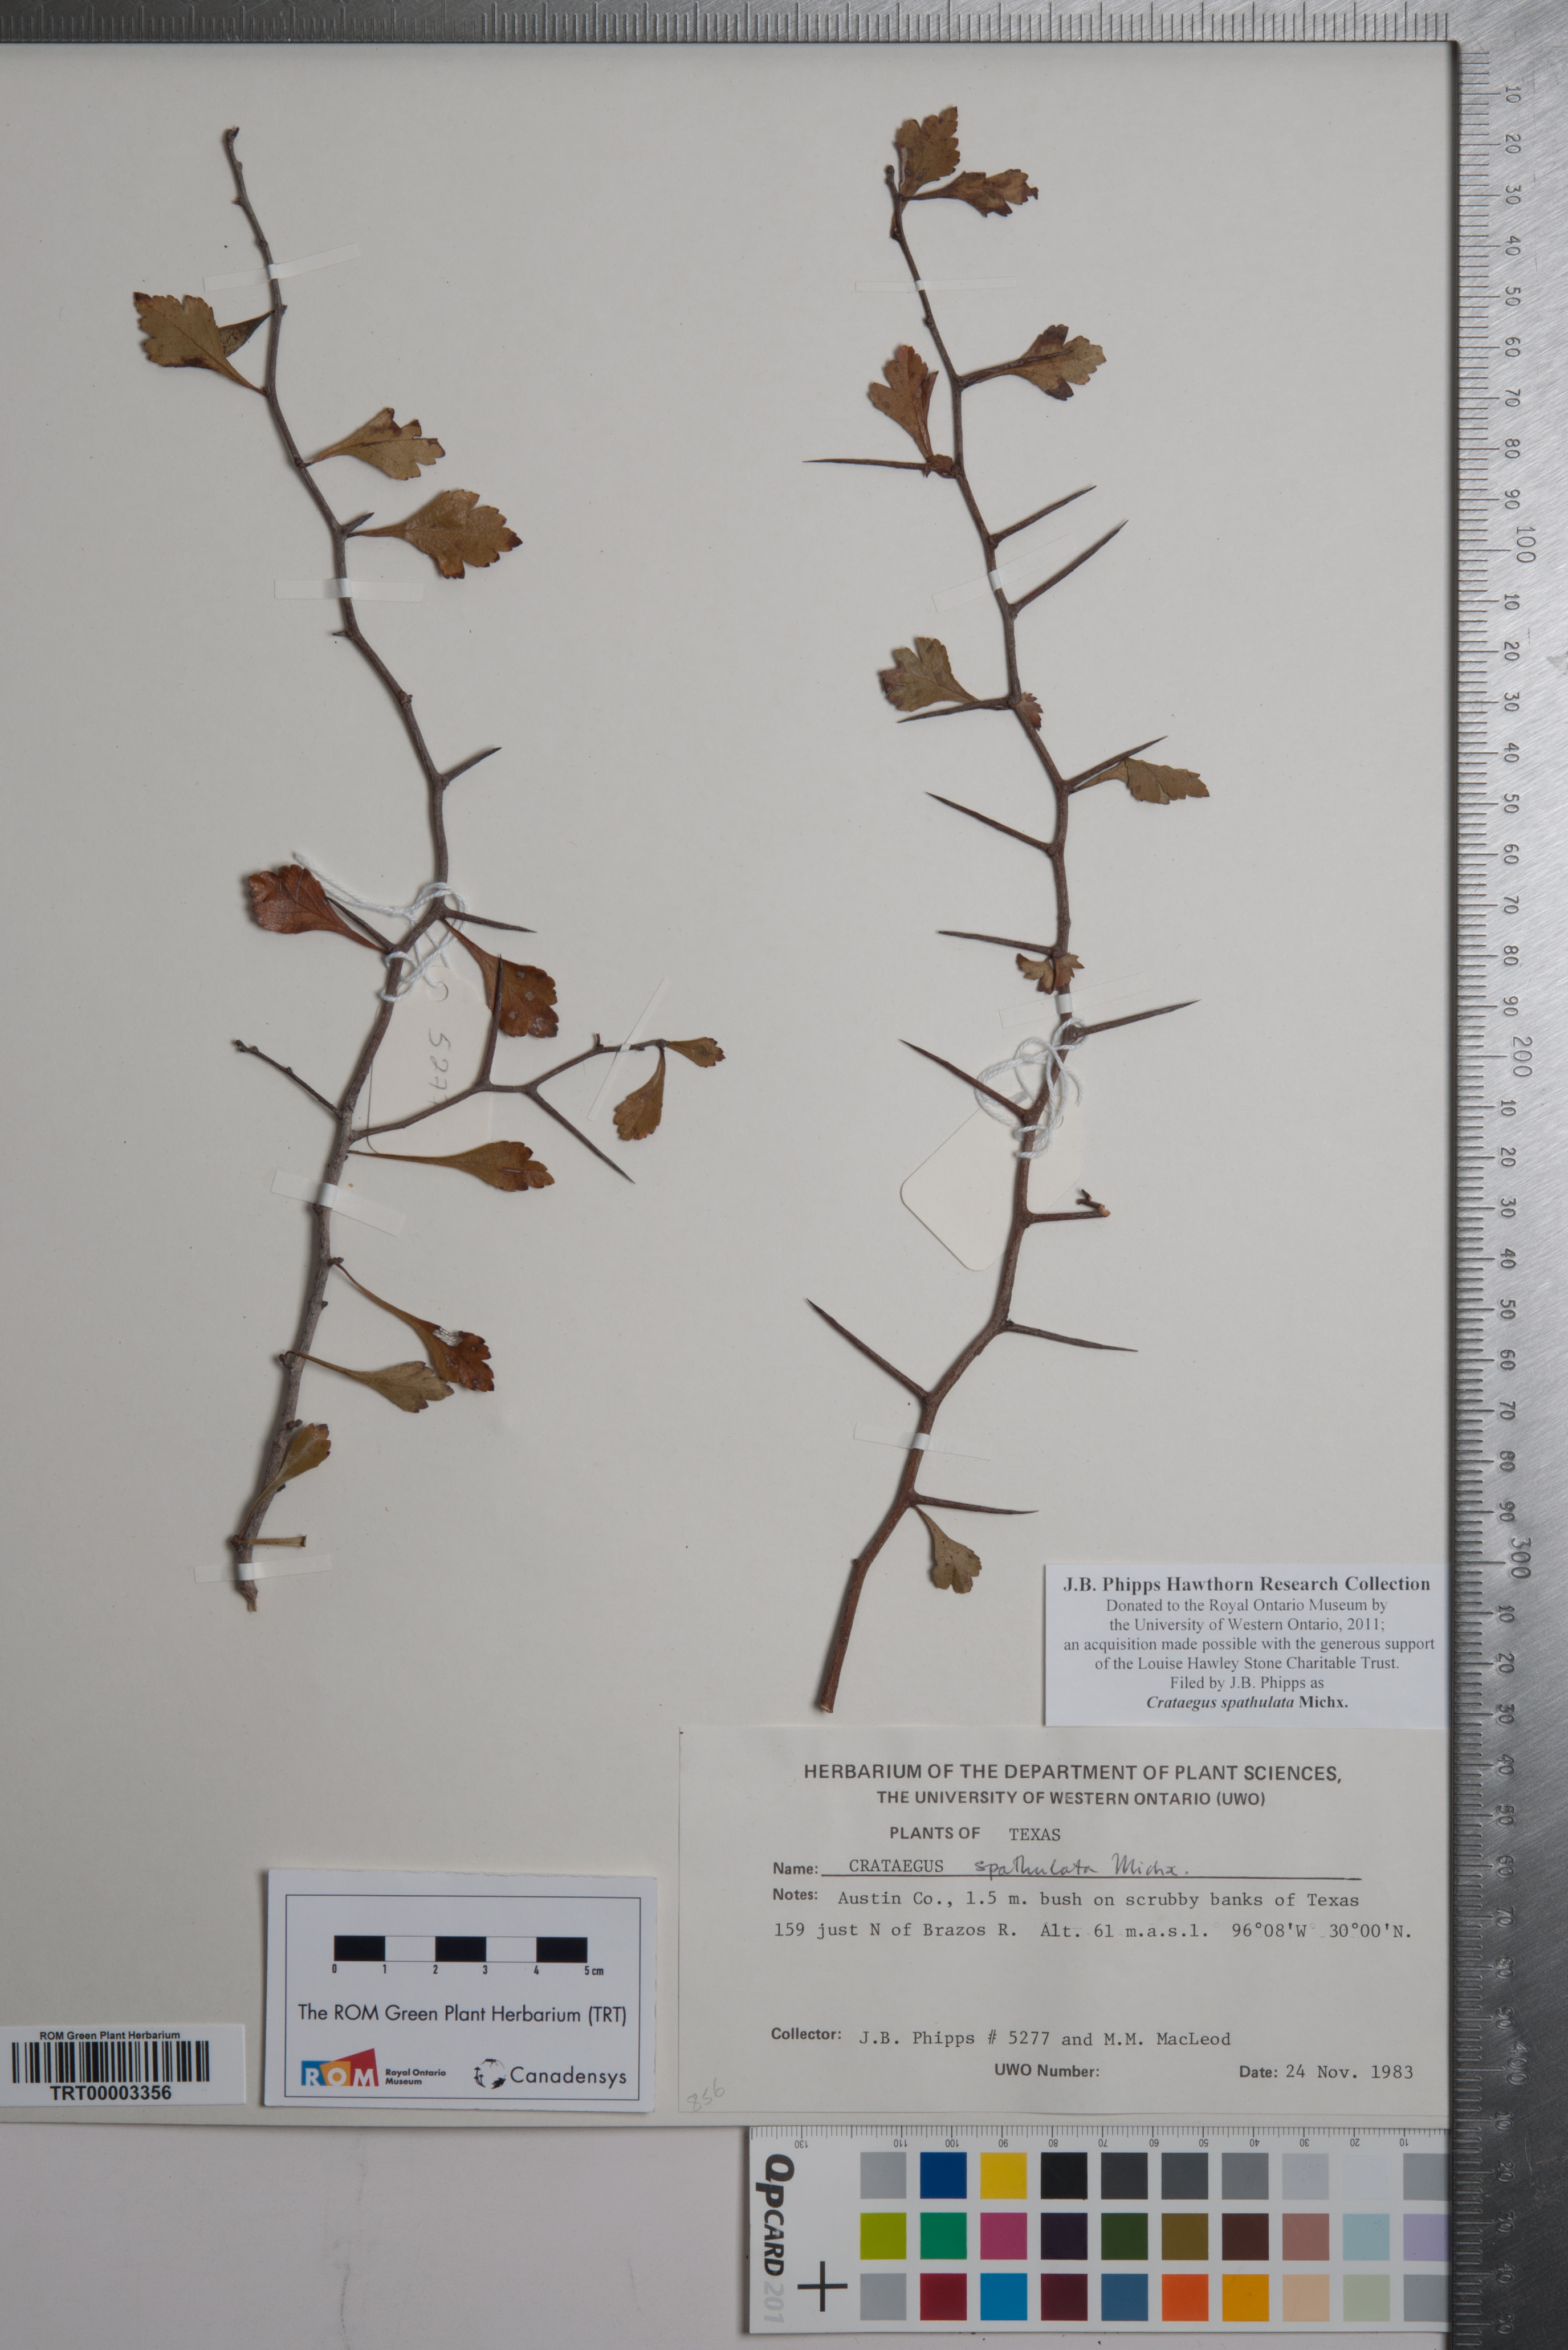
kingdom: Plantae
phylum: Tracheophyta
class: Magnoliopsida
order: Rosales
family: Rosaceae
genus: Crataegus
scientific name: Crataegus spathulata
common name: Littlehip hawthorn
